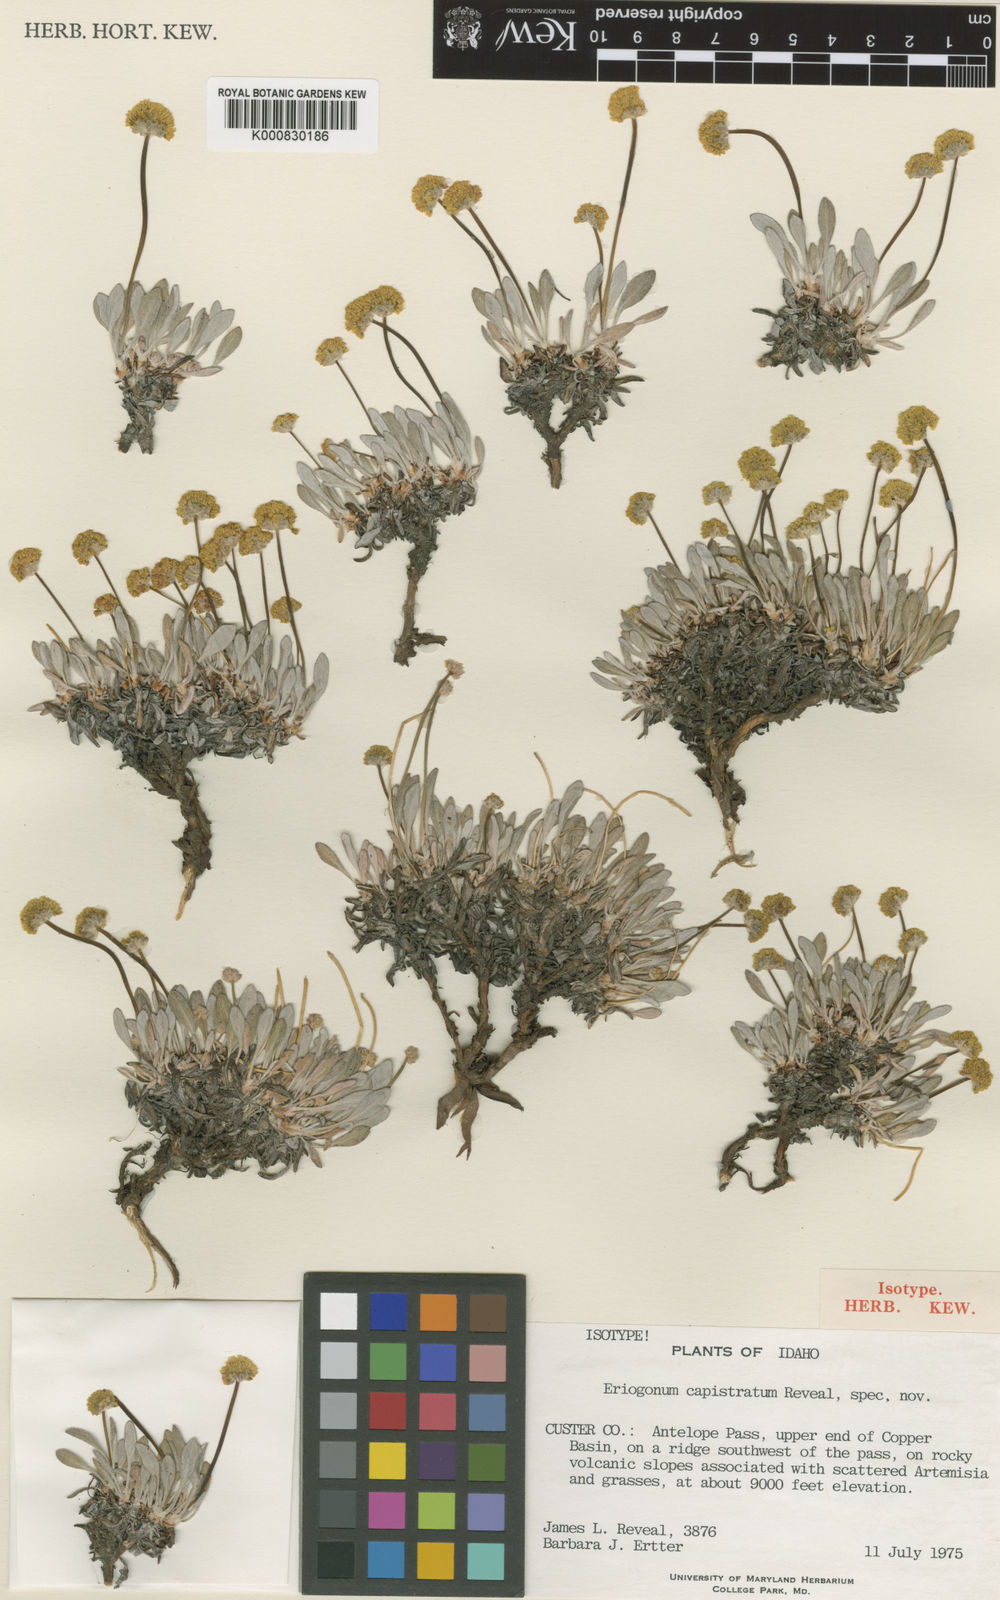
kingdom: Plantae
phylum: Tracheophyta
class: Magnoliopsida
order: Caryophyllales
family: Polygonaceae
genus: Eriogonum
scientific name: Eriogonum crosbyae
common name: Crosby's wild buckwheat
